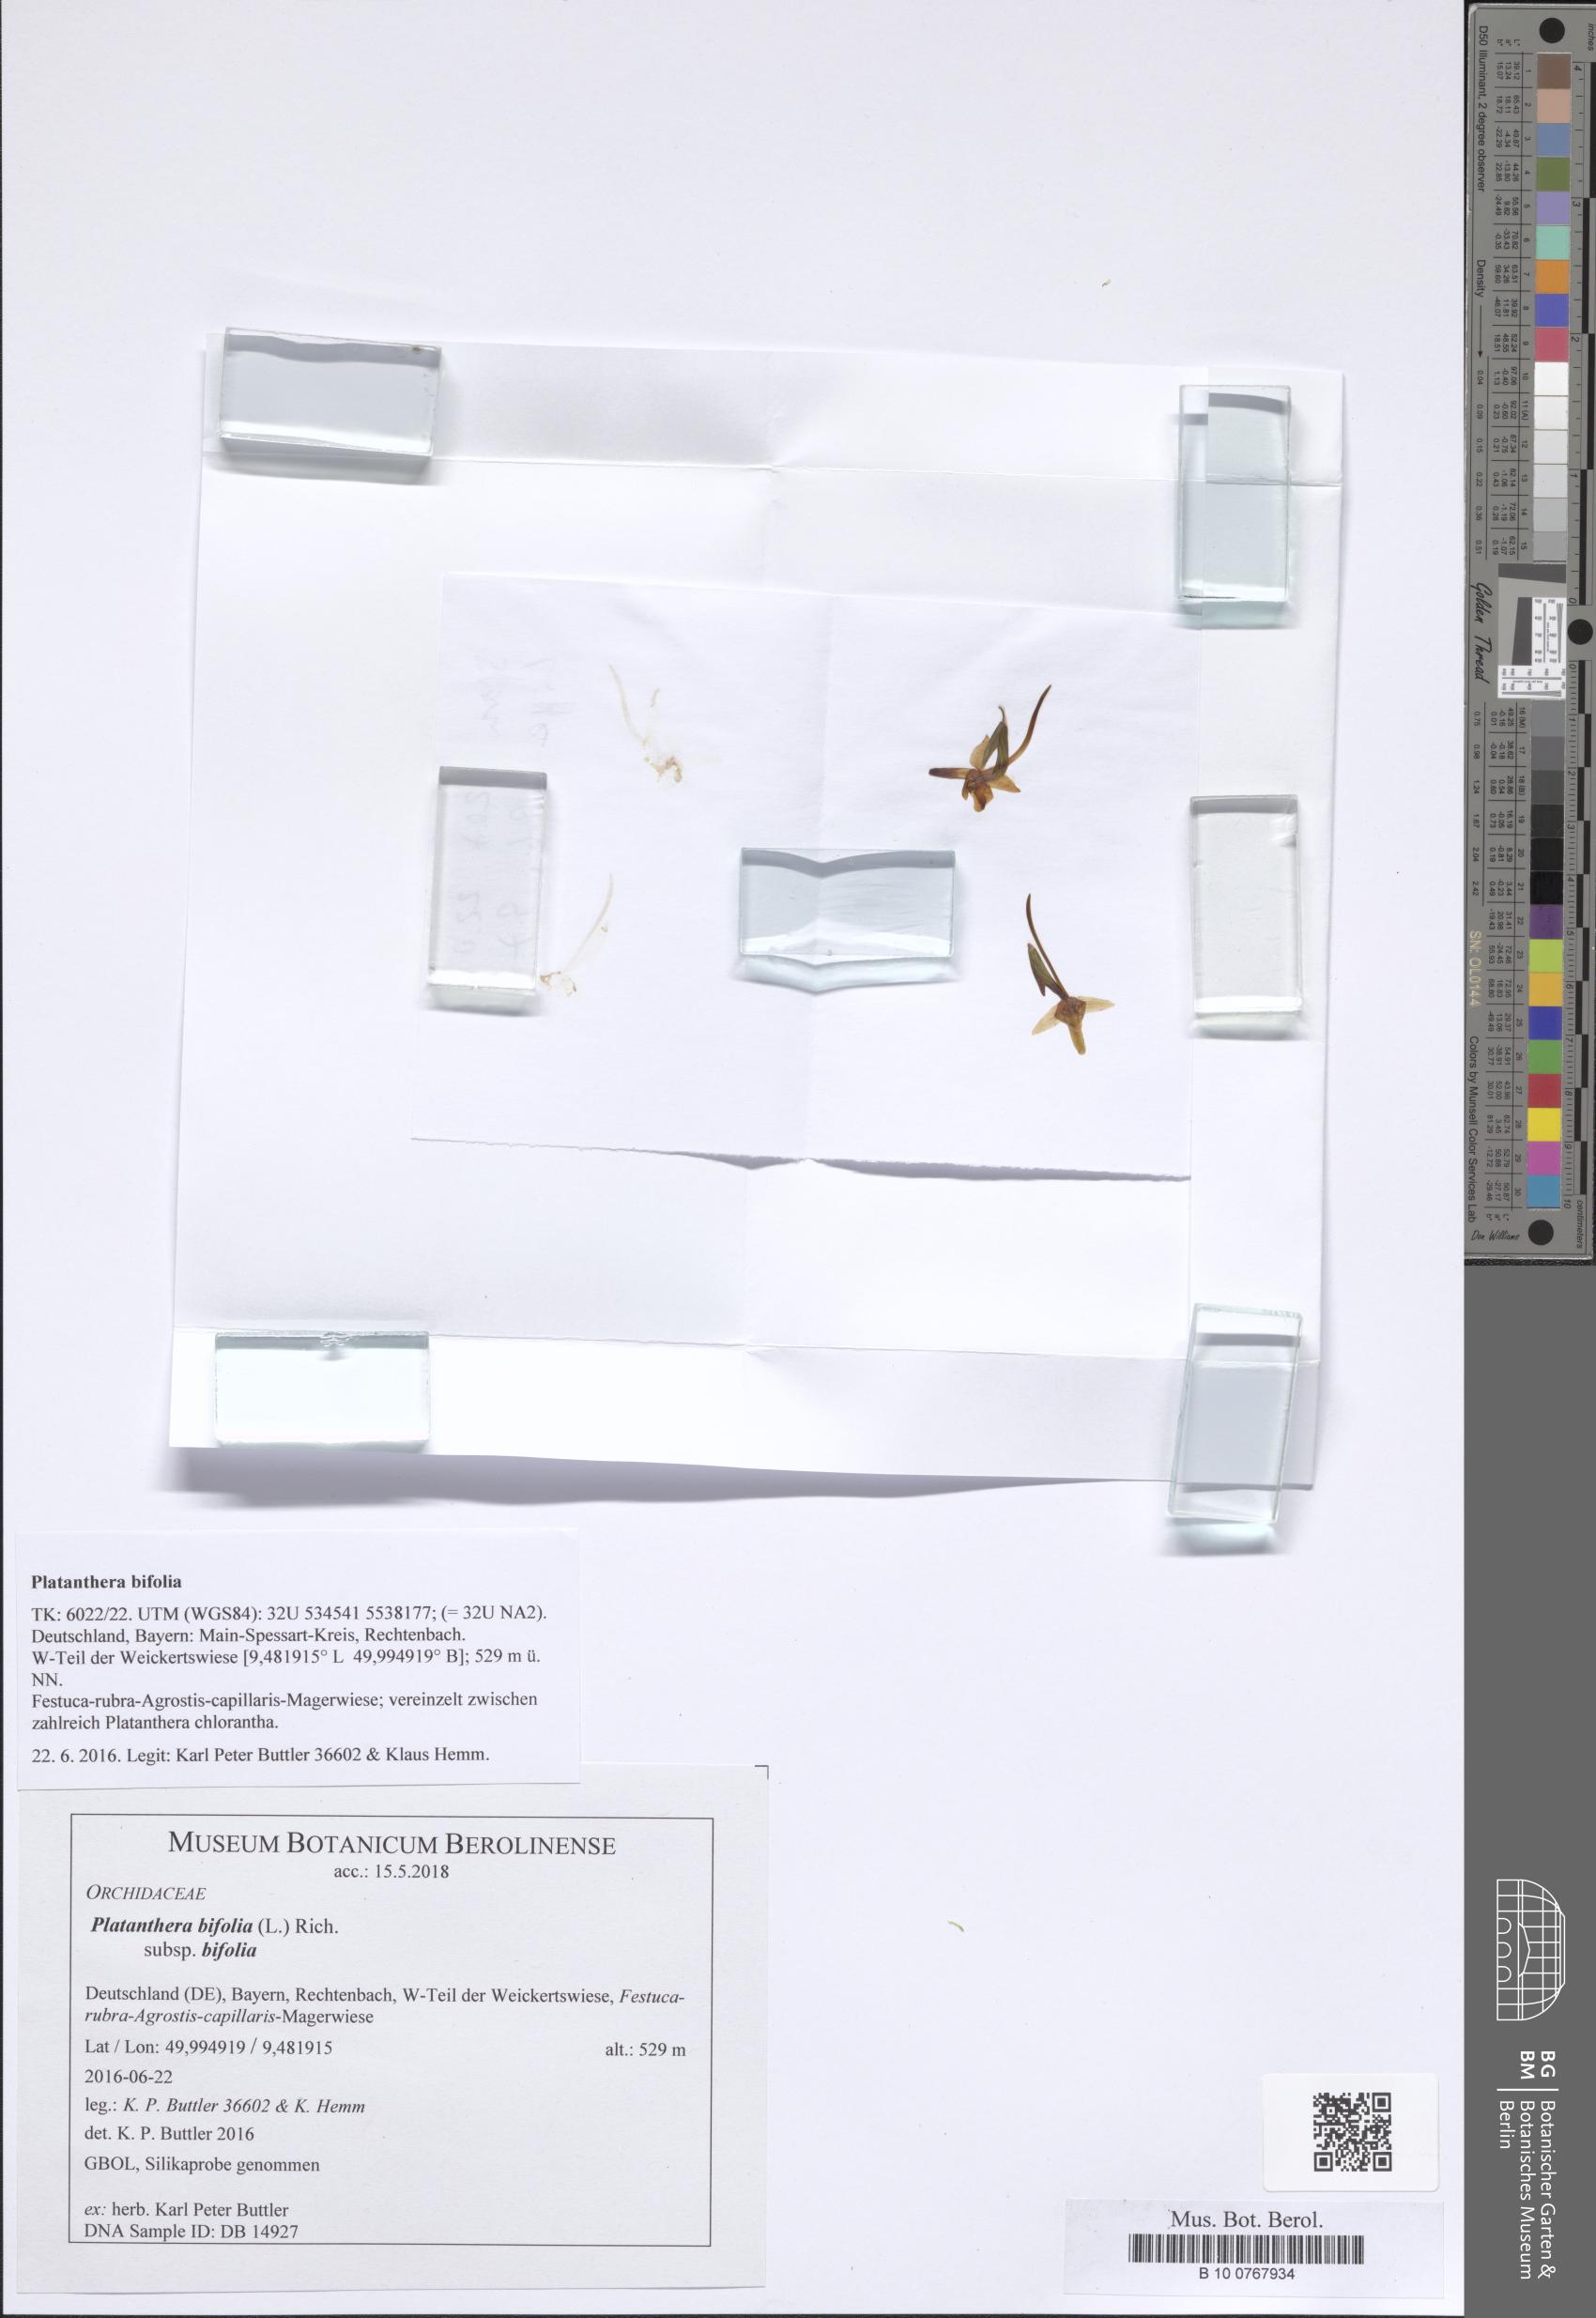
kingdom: Plantae
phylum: Tracheophyta
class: Liliopsida
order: Asparagales
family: Orchidaceae
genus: Platanthera
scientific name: Platanthera bifolia
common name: Lesser butterfly-orchid
